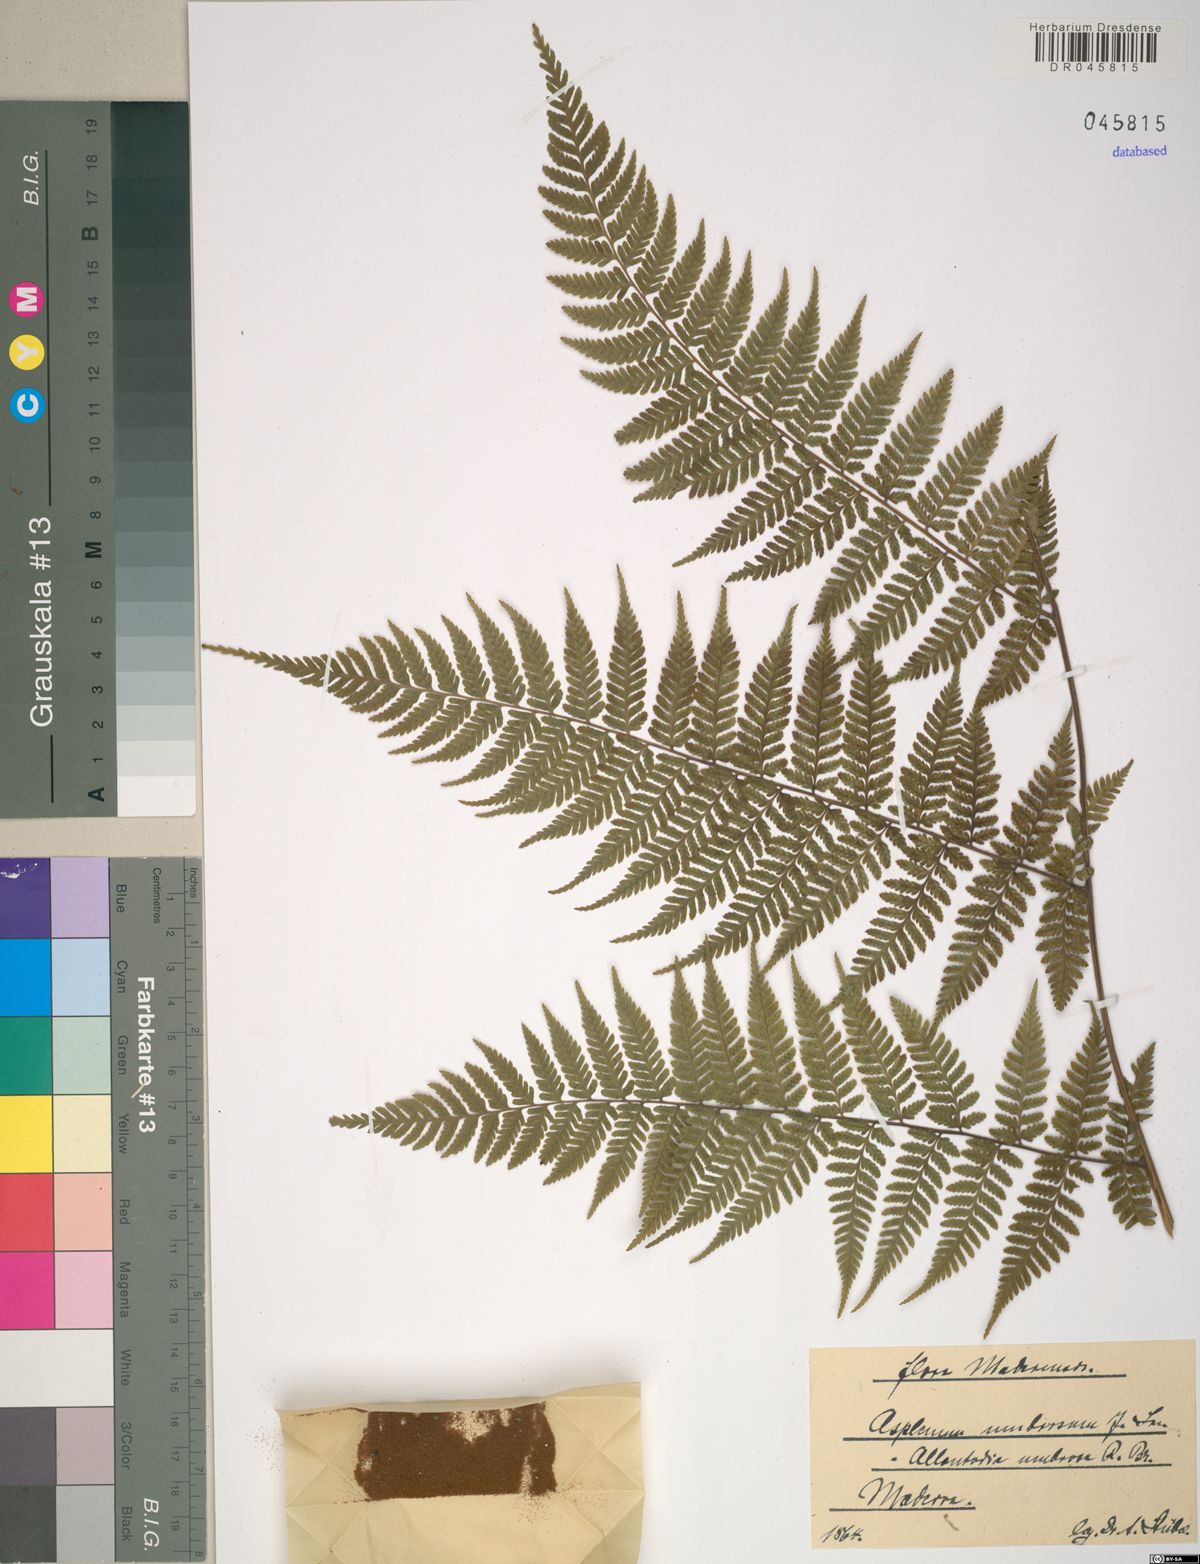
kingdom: Plantae
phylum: Tracheophyta
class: Polypodiopsida
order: Polypodiales
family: Athyriaceae
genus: Diplazium
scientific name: Diplazium caudatum
